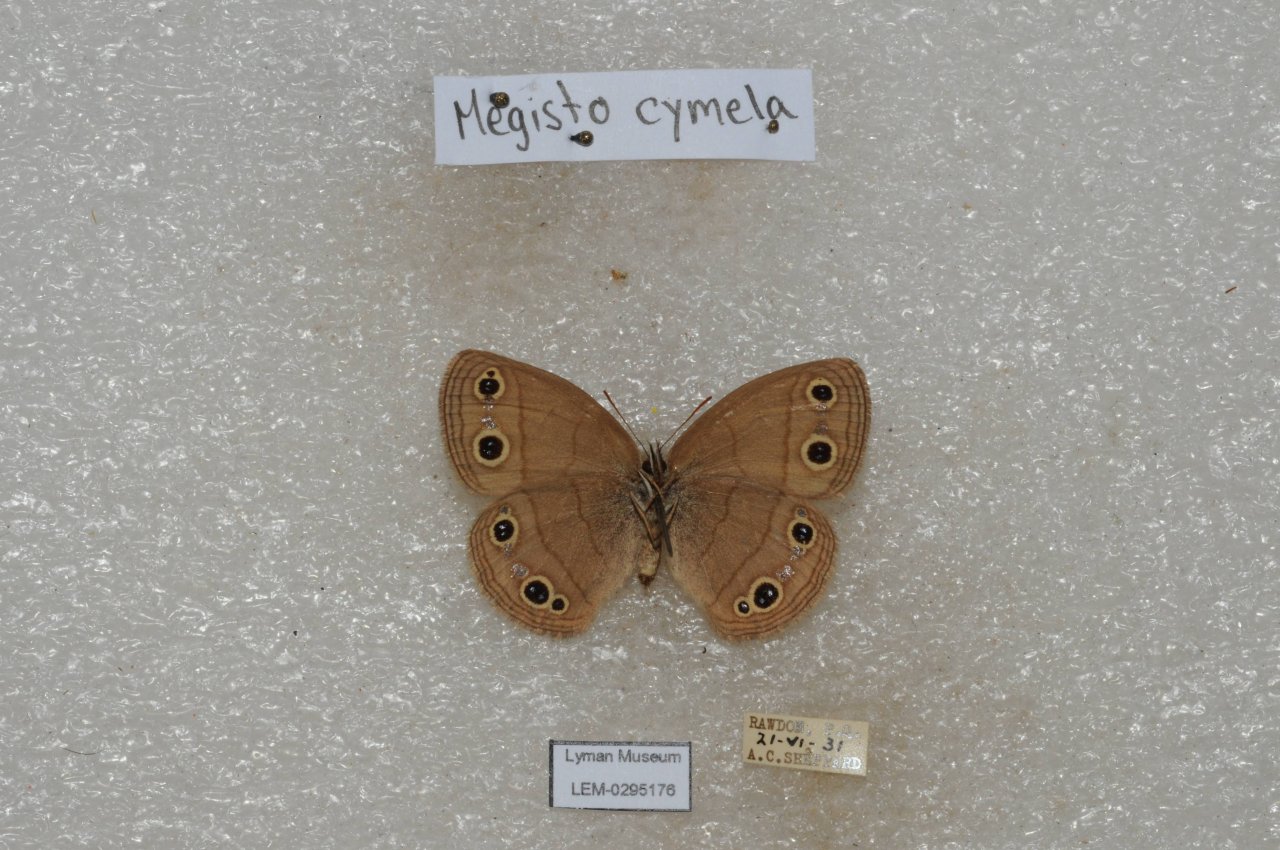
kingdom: Animalia
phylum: Arthropoda
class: Insecta
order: Lepidoptera
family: Nymphalidae
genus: Euptychia
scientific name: Euptychia cymela
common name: Little Wood Satyr
